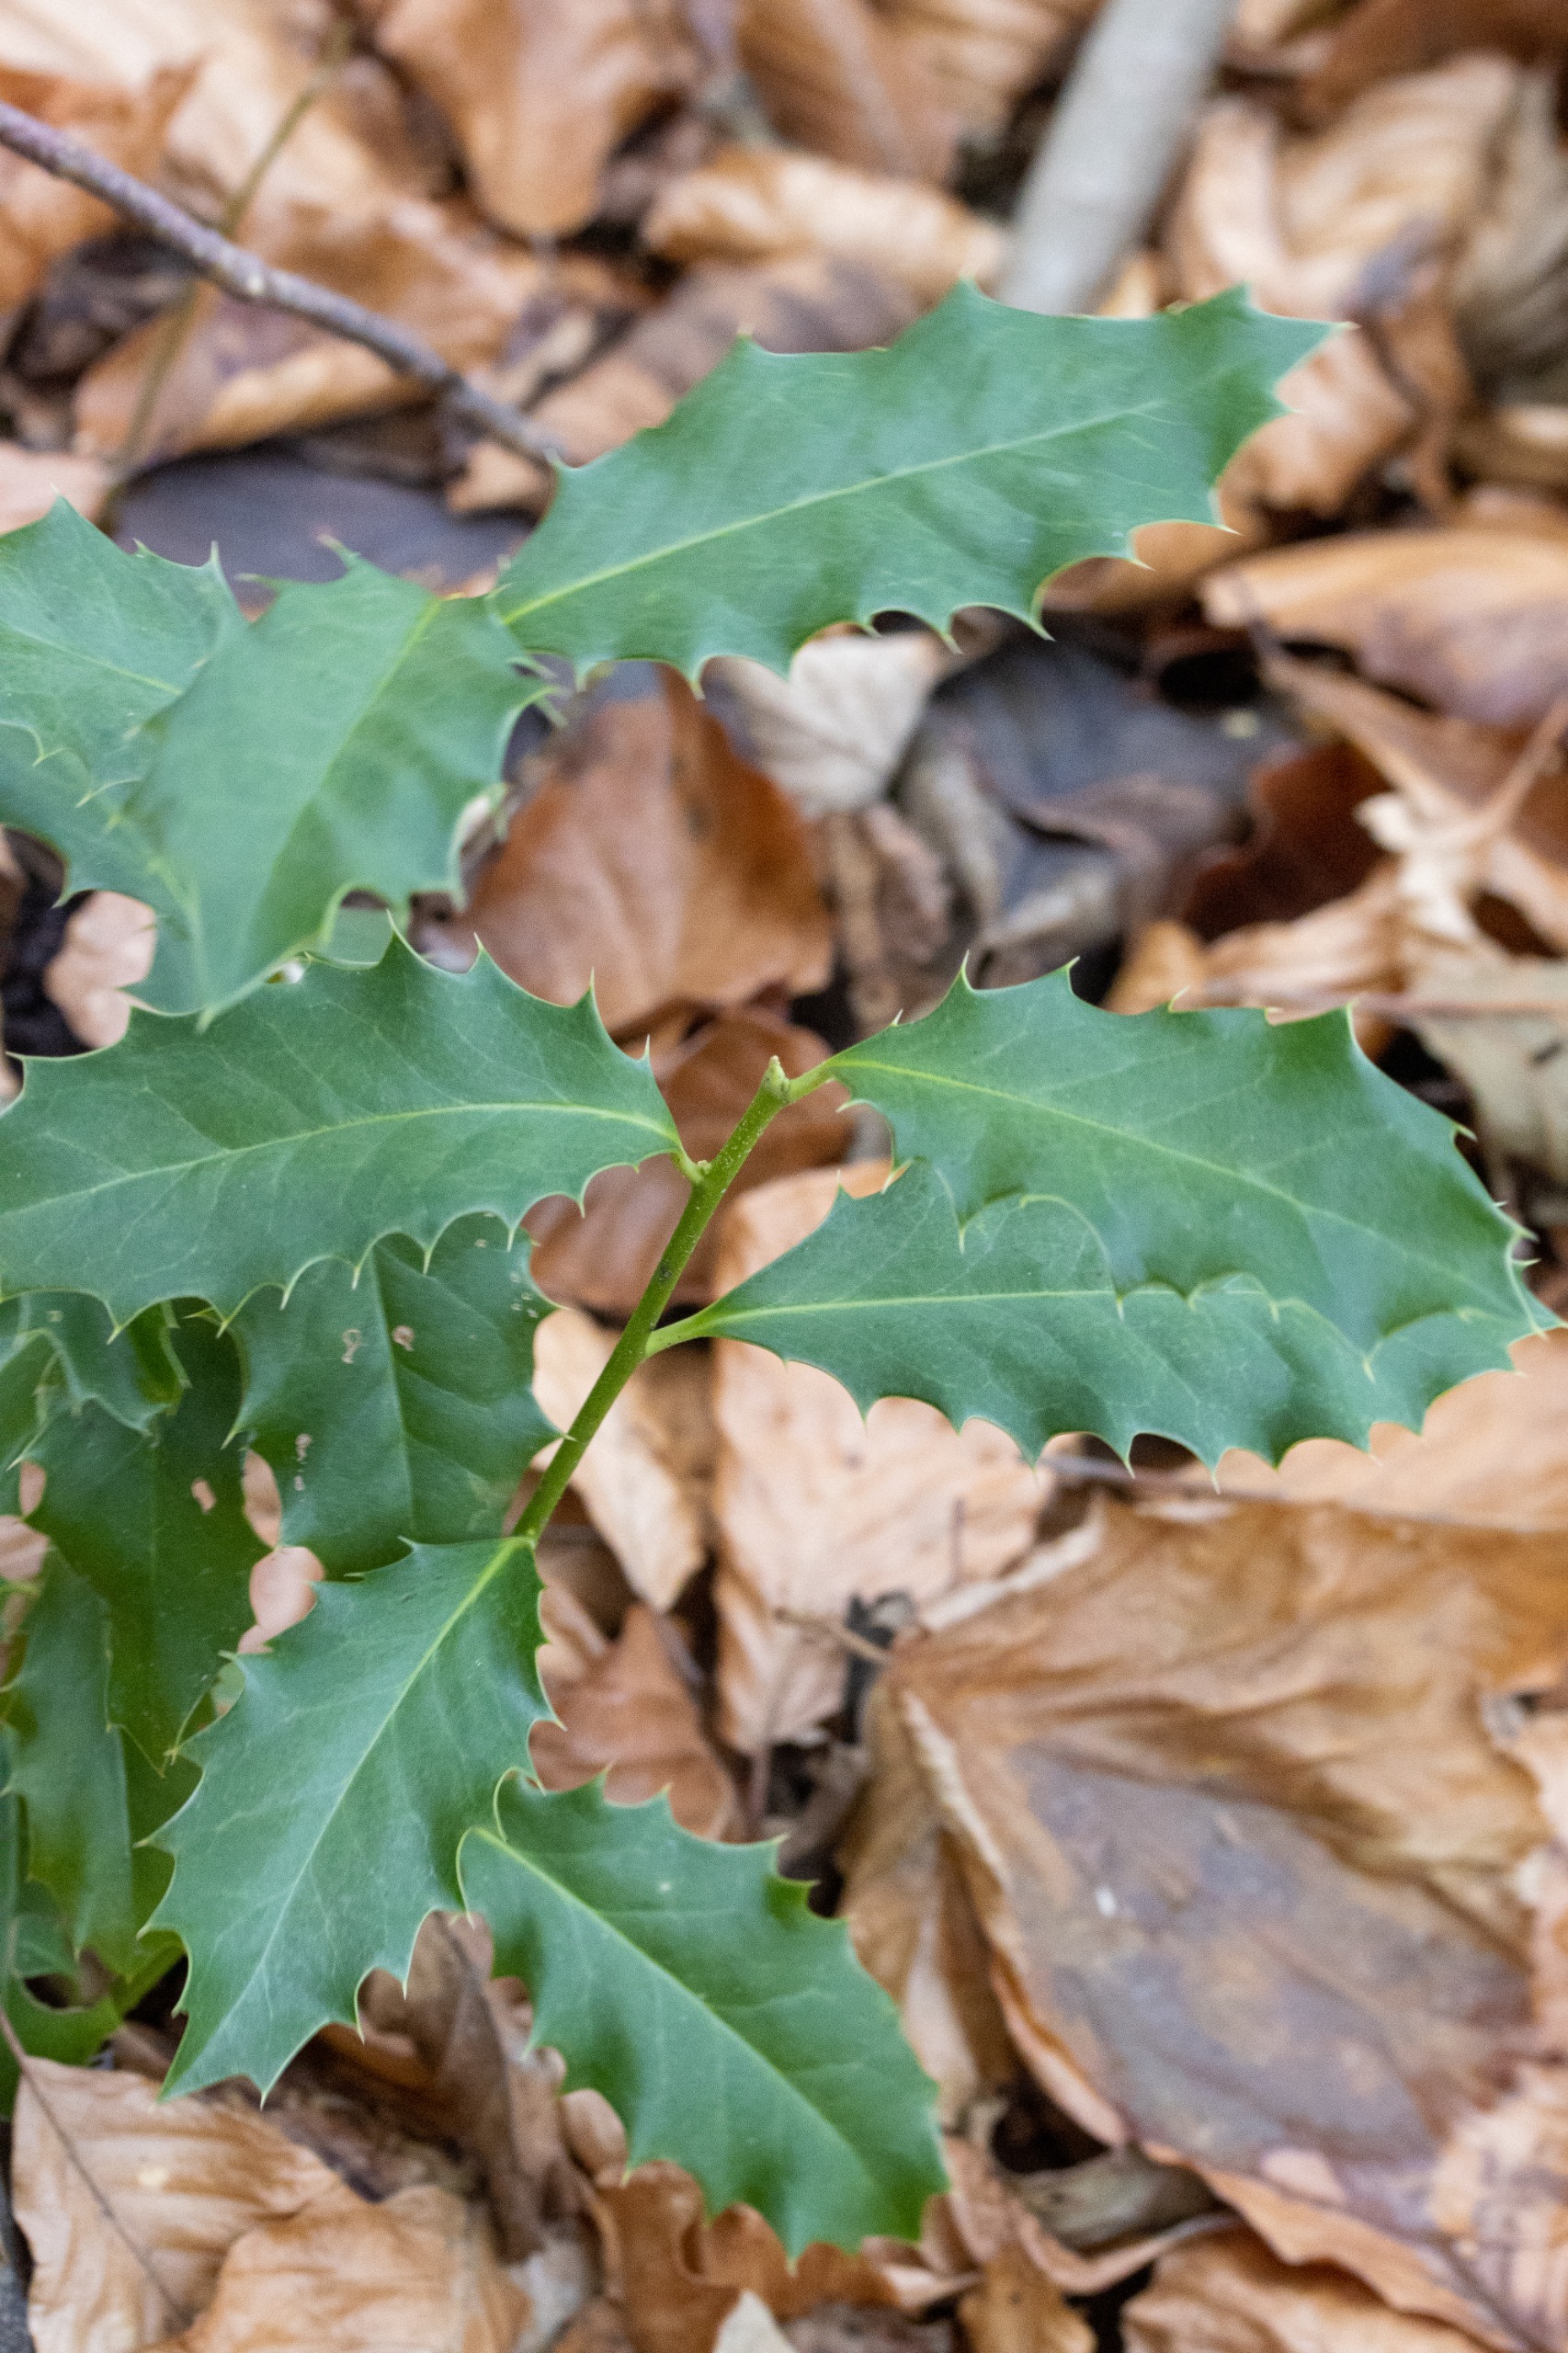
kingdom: Plantae
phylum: Tracheophyta
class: Magnoliopsida
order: Aquifoliales
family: Aquifoliaceae
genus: Ilex
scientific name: Ilex aquifolium
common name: Kristtorn
